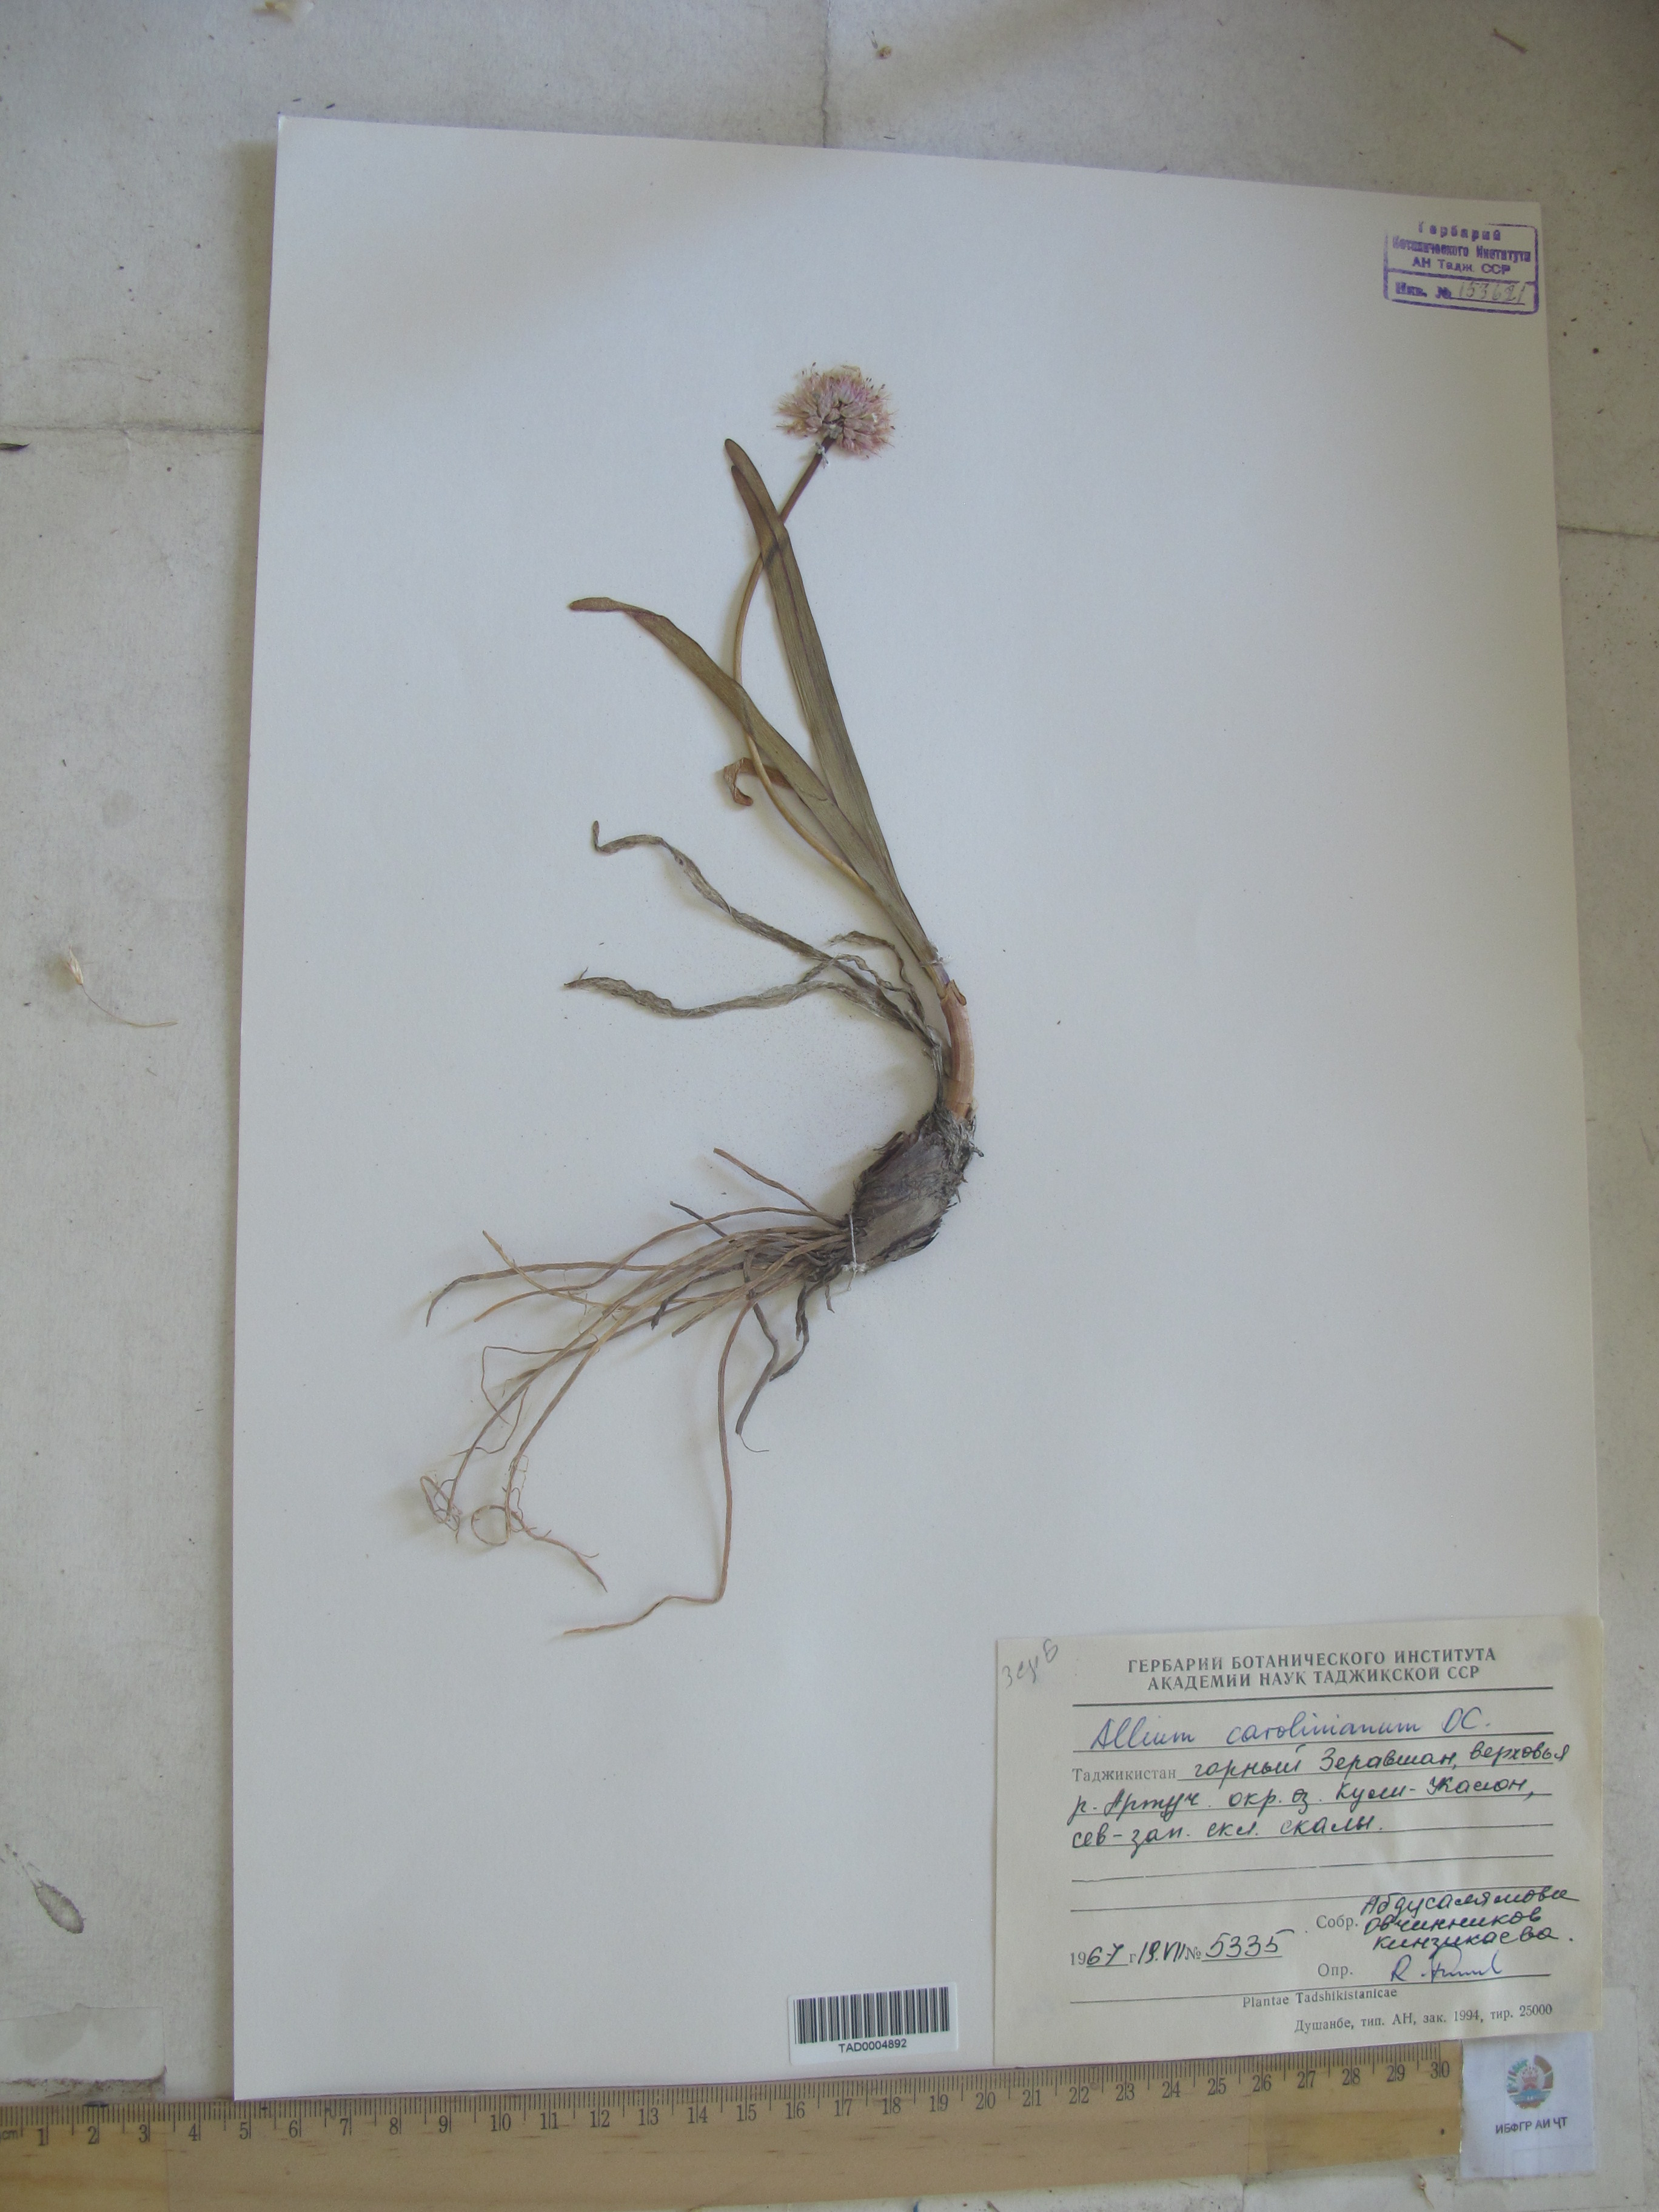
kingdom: Plantae
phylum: Tracheophyta
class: Liliopsida
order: Asparagales
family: Amaryllidaceae
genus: Allium
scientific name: Allium carolinianum
